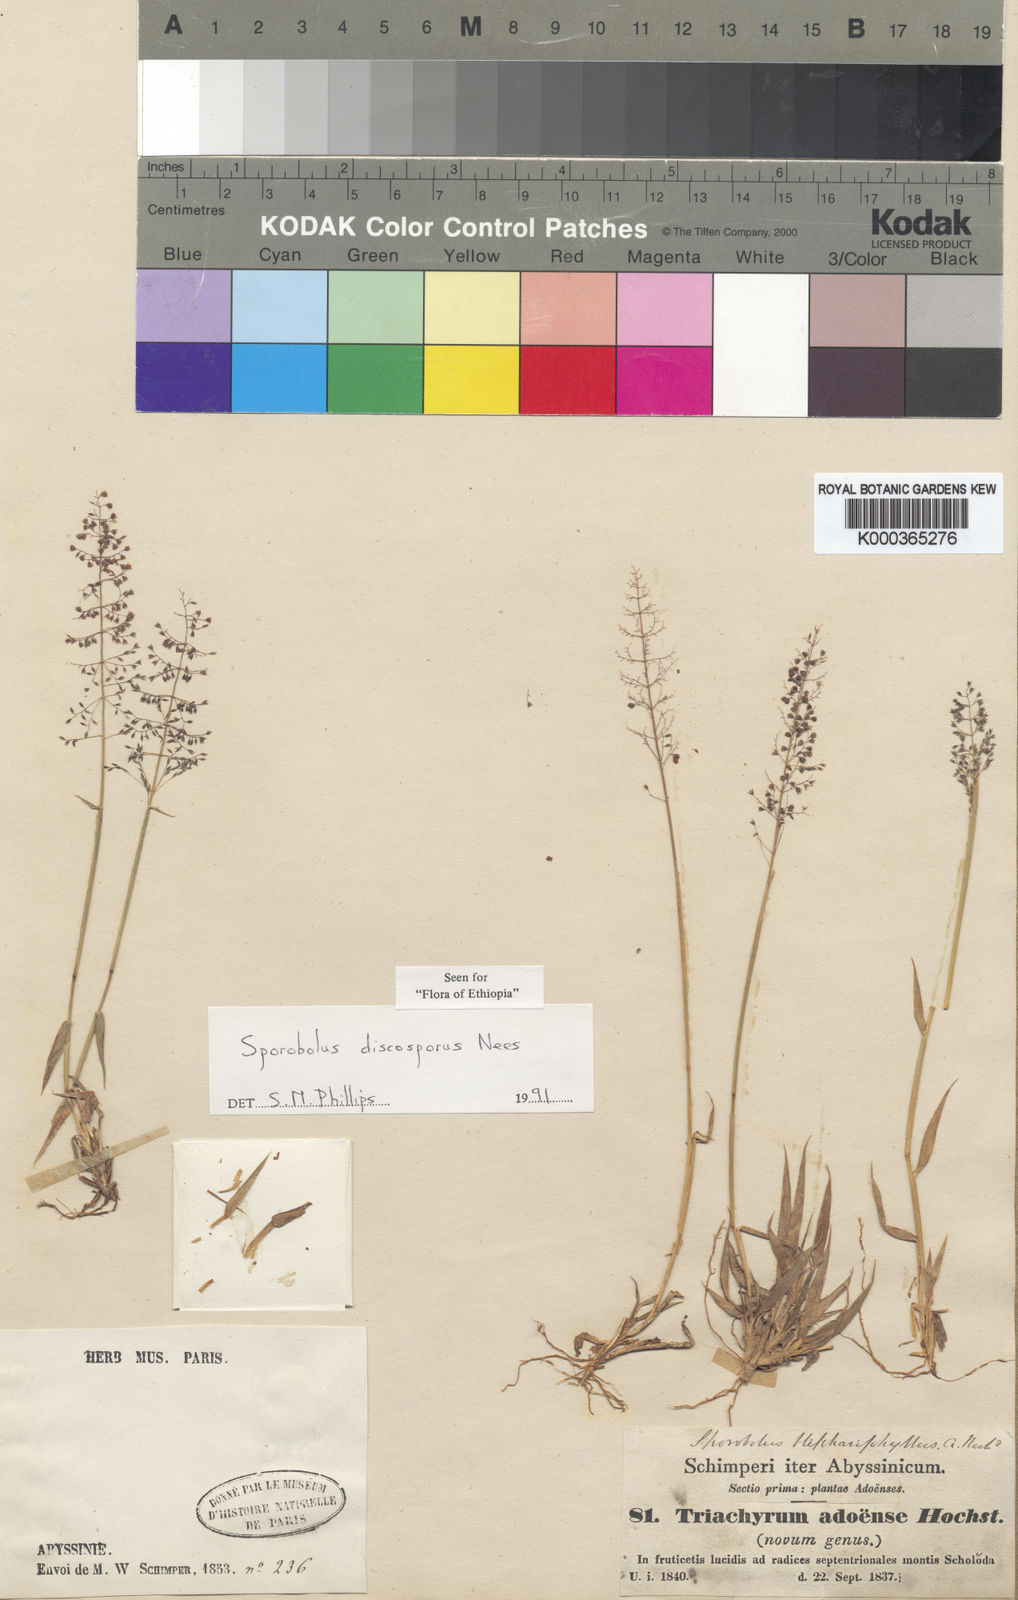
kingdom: Plantae
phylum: Tracheophyta
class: Liliopsida
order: Poales
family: Poaceae
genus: Sporobolus
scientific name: Sporobolus discosporus
